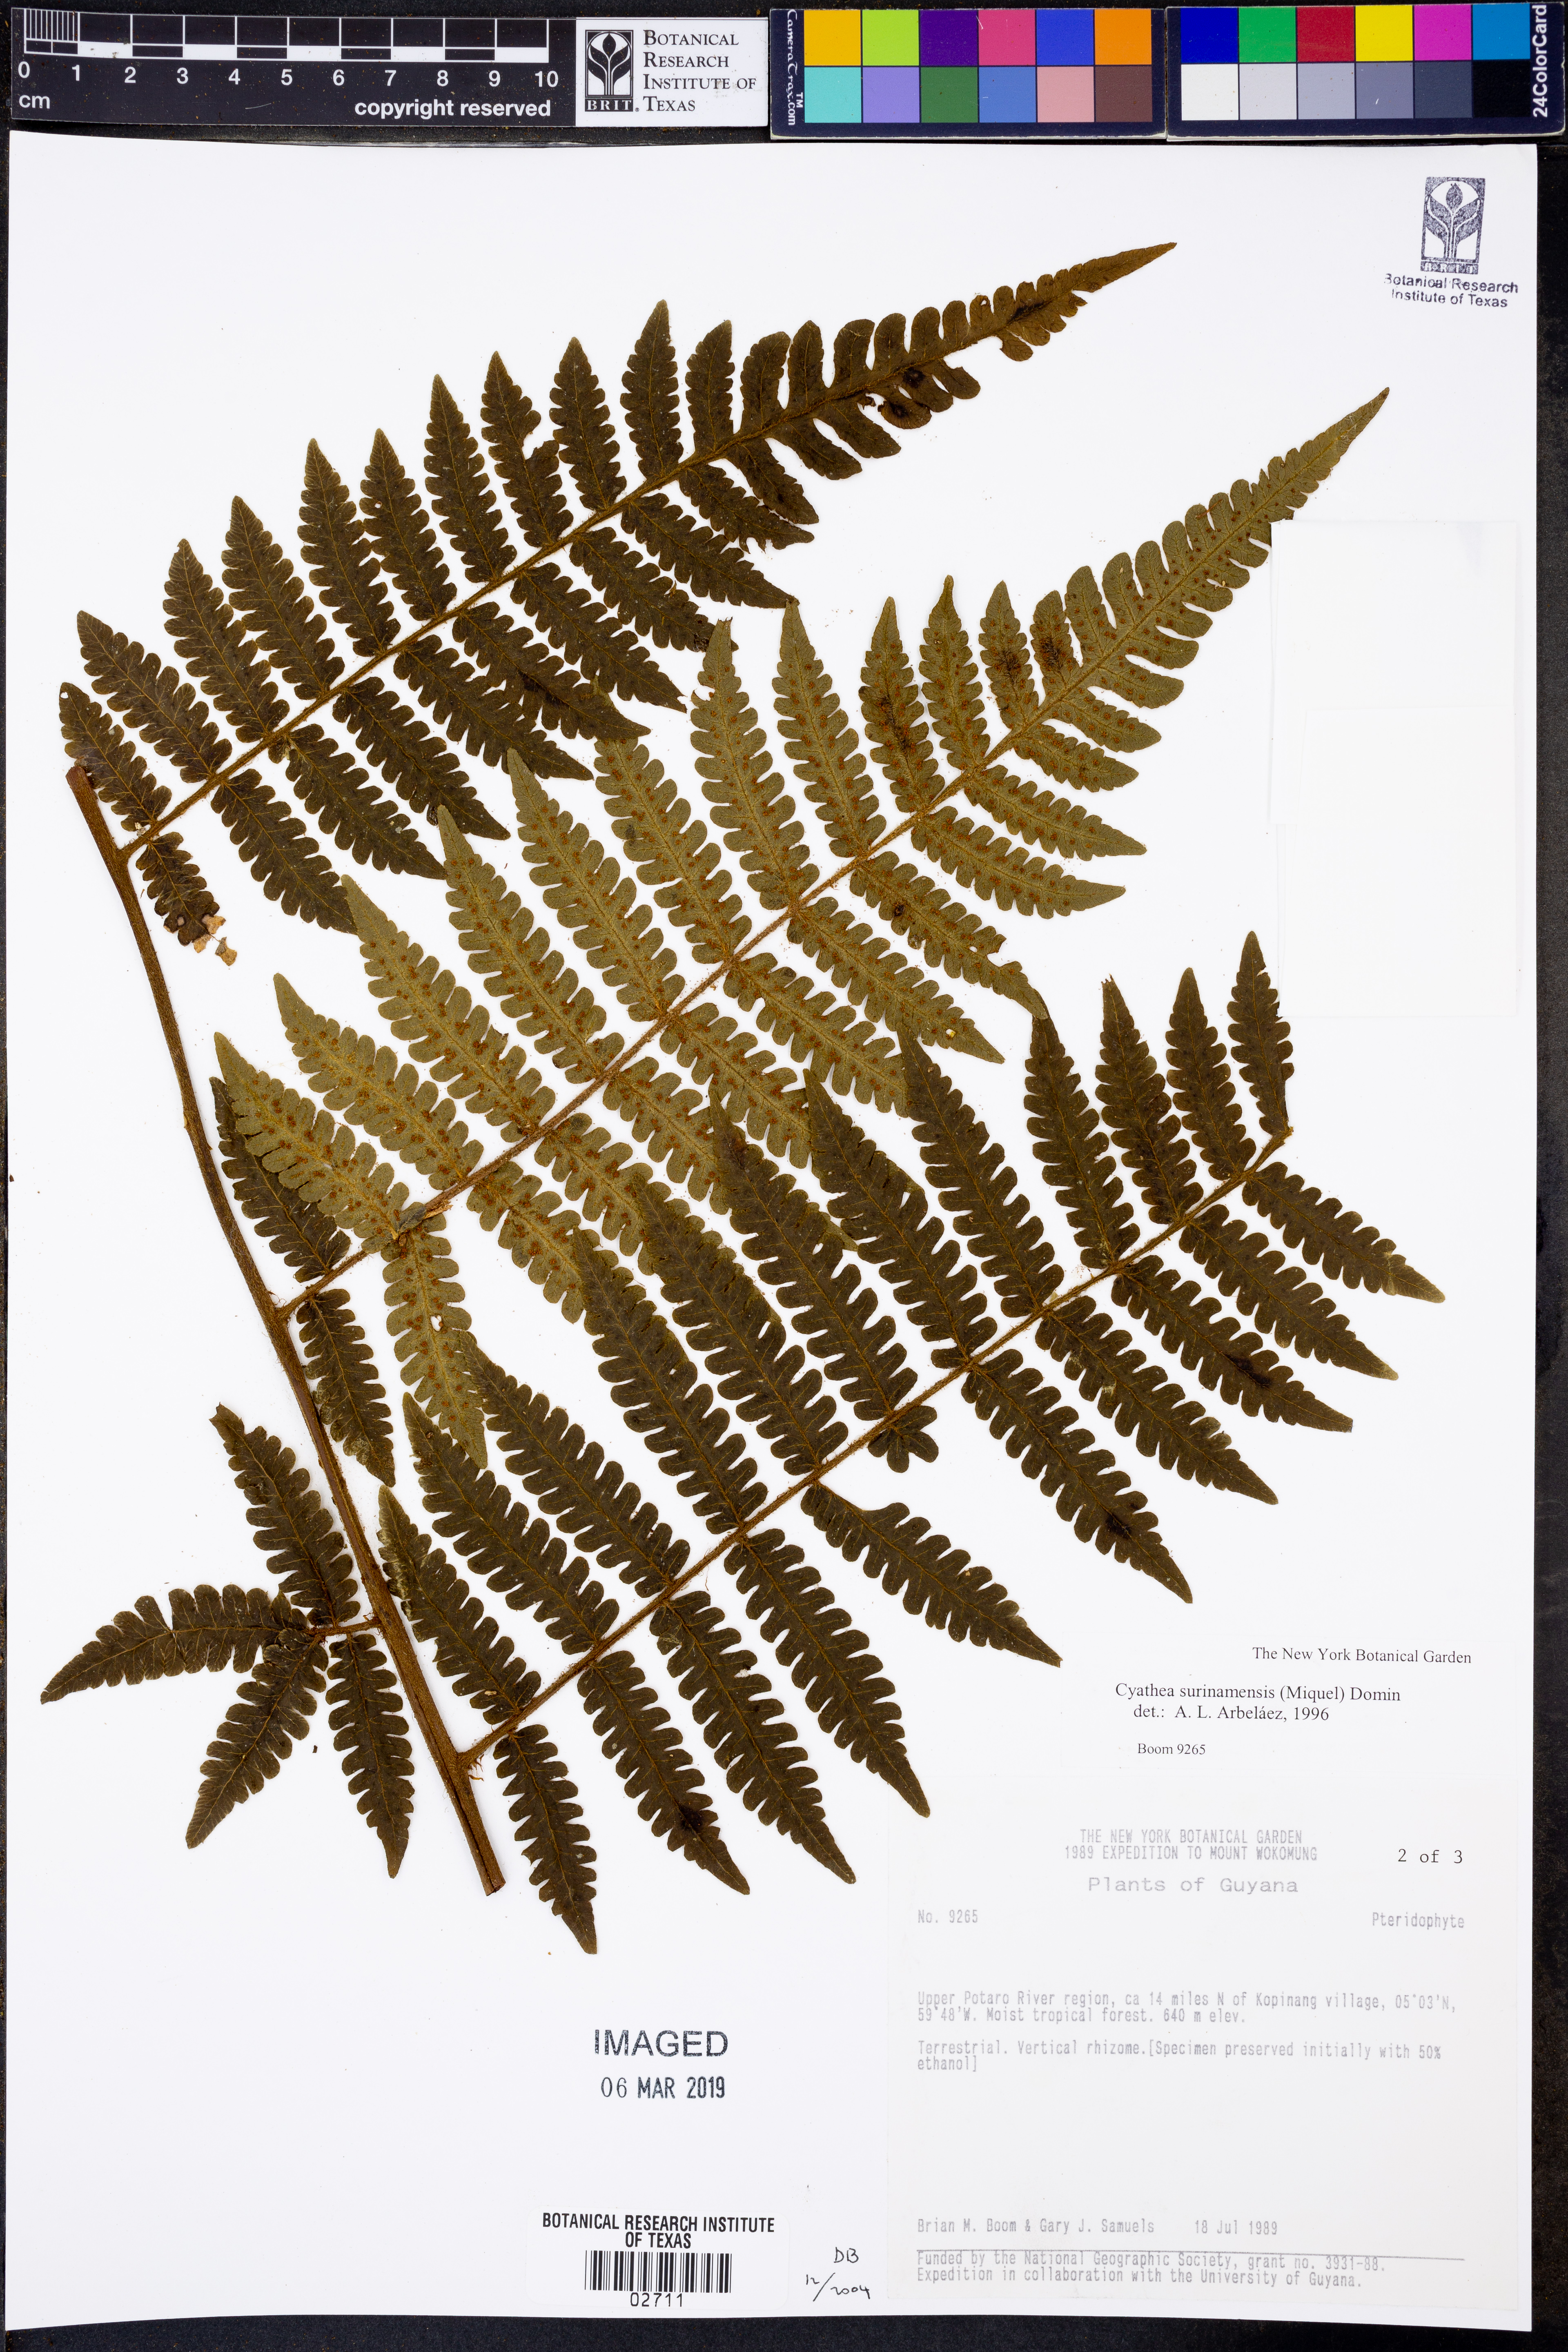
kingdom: Plantae
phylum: Tracheophyta
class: Polypodiopsida
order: Cyatheales
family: Cyatheaceae
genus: Cyathea
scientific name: Cyathea surinamensis
